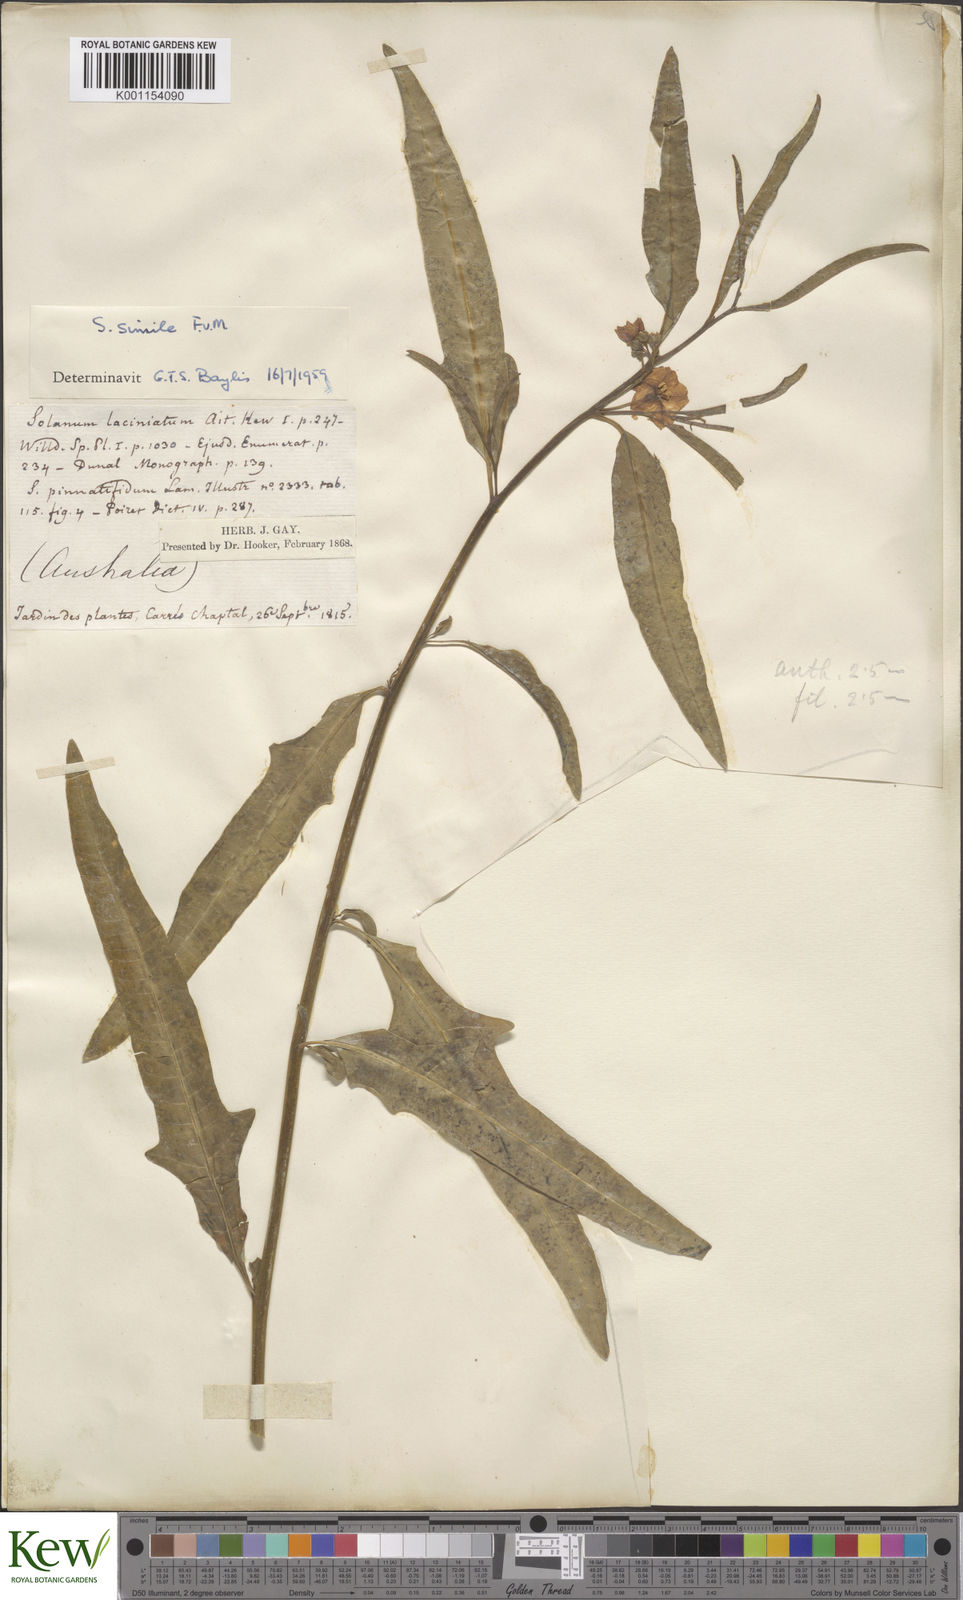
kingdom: Plantae
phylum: Tracheophyta
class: Magnoliopsida
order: Solanales
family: Solanaceae
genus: Solanum
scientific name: Solanum simile
